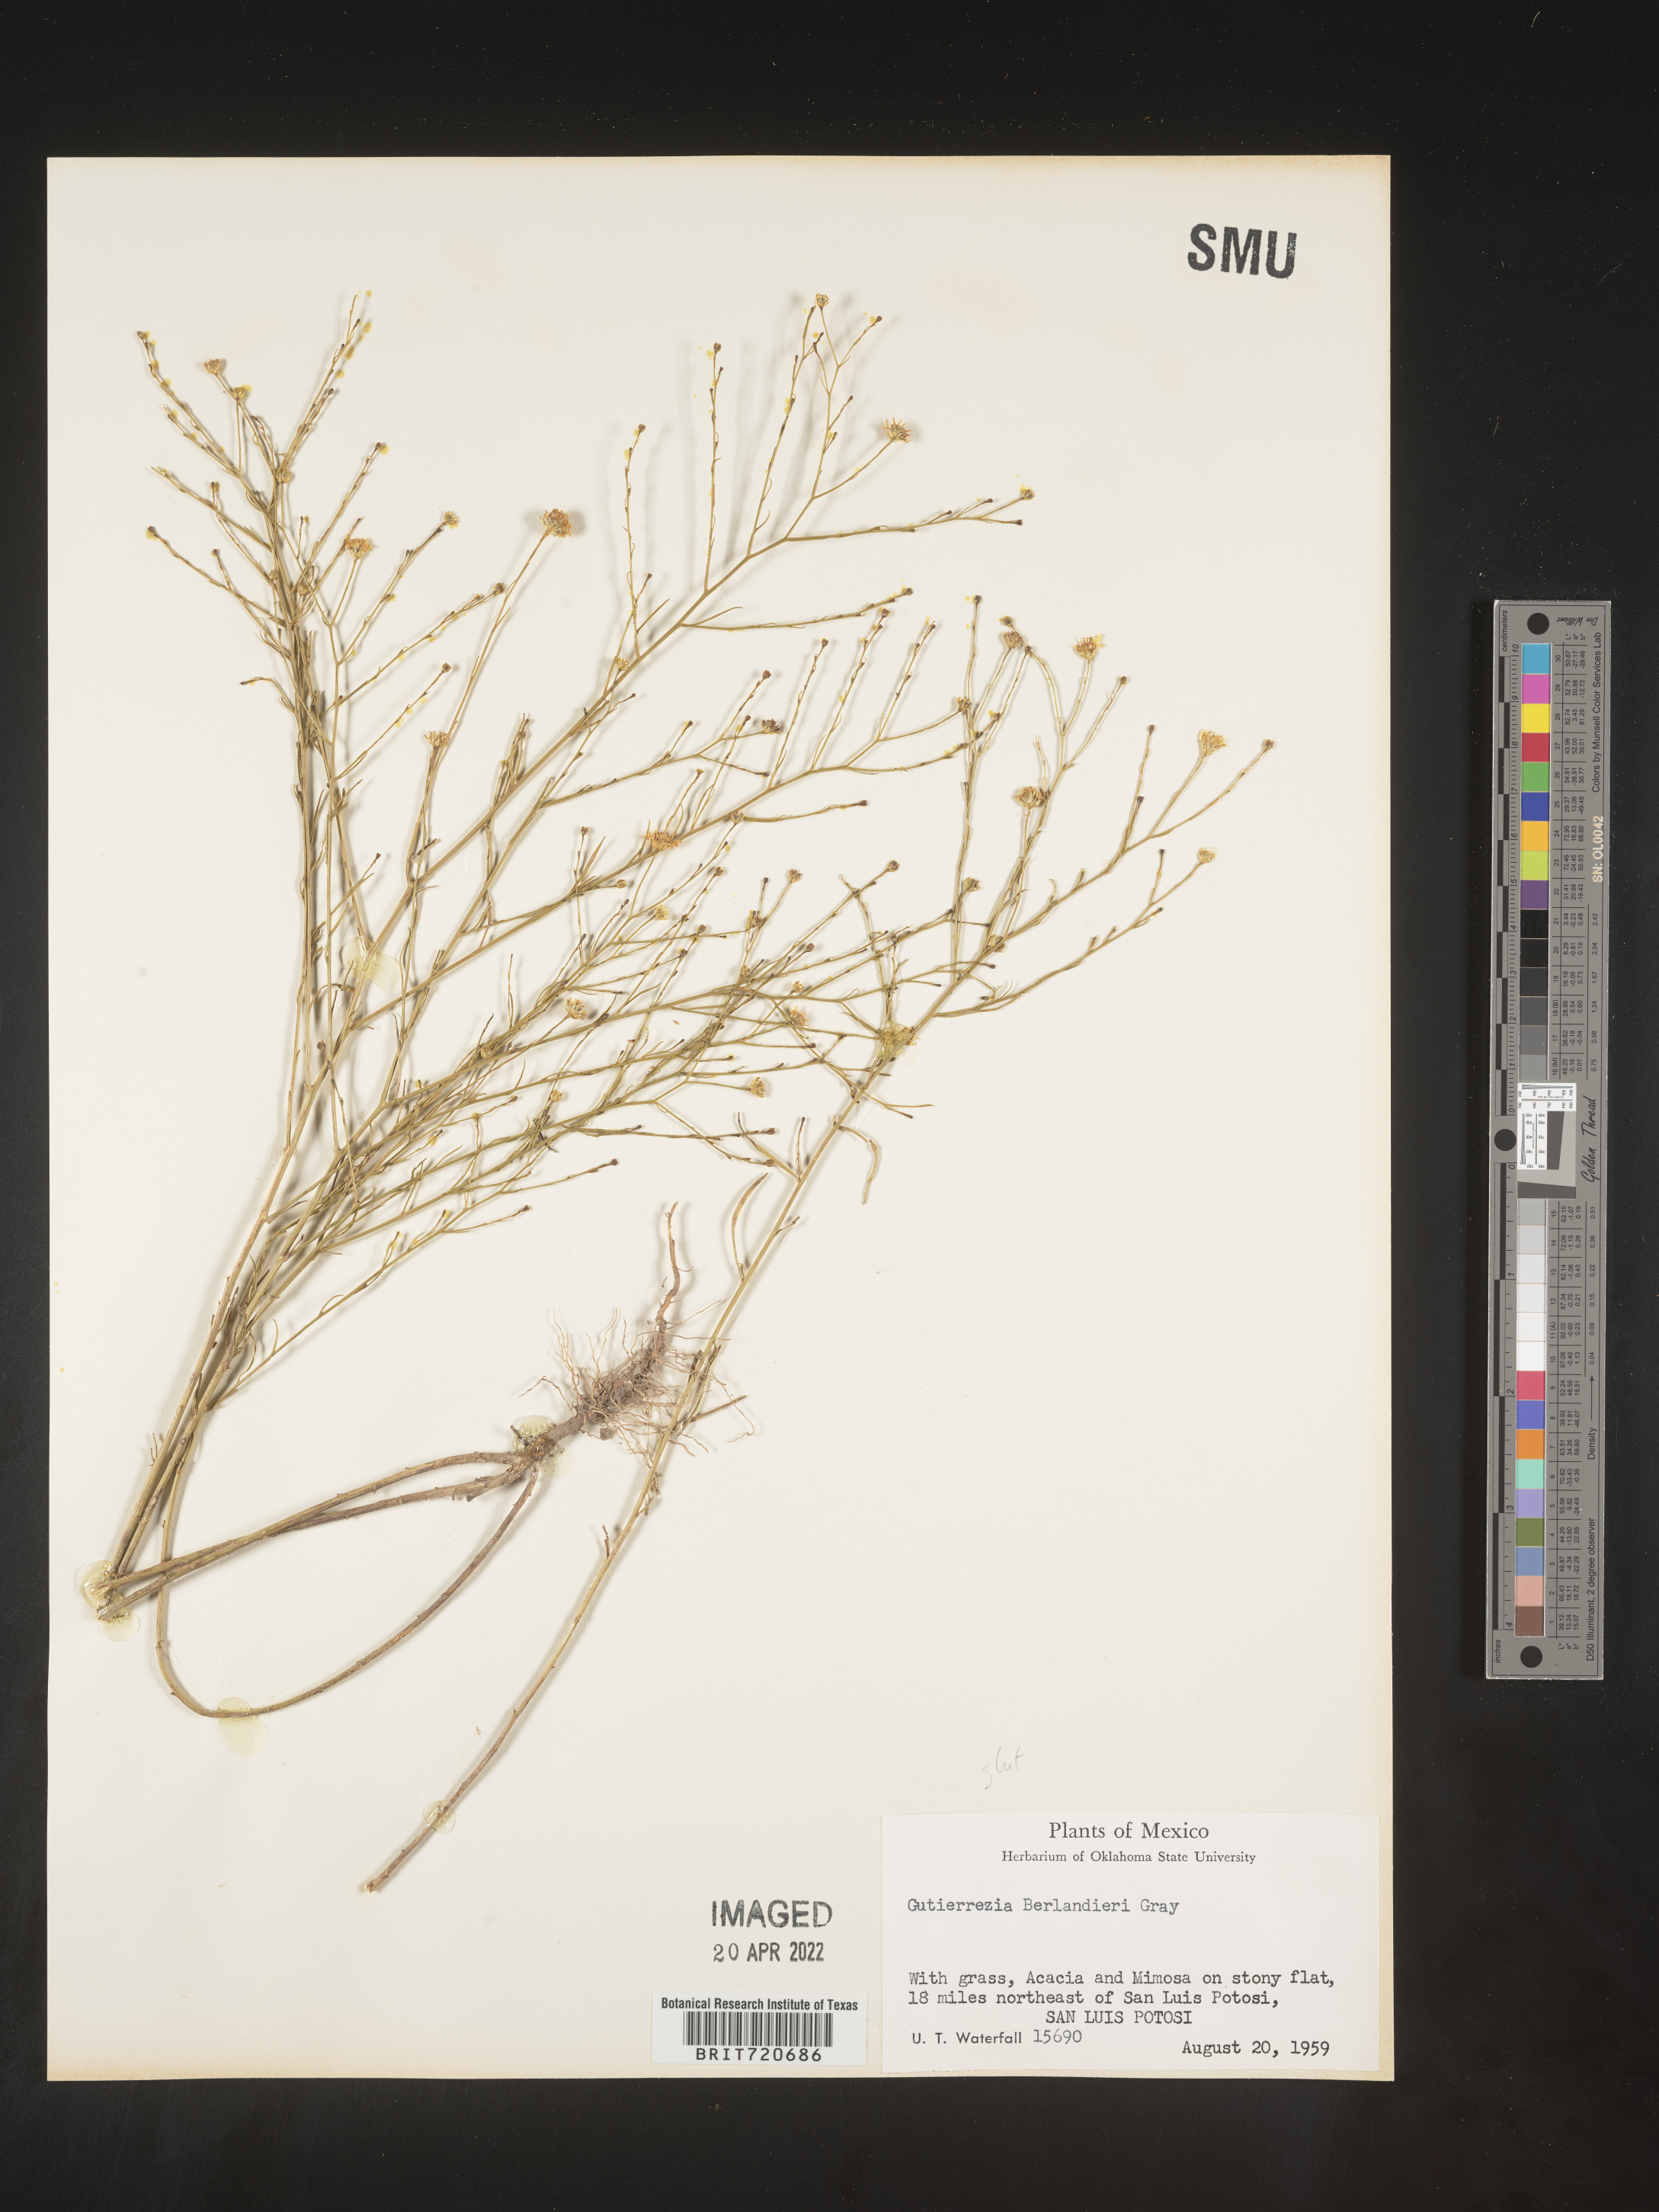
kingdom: Plantae
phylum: Tracheophyta
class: Magnoliopsida
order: Asterales
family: Asteraceae
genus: Gutierrezia
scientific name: Gutierrezia texana
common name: Texas snakeweed
